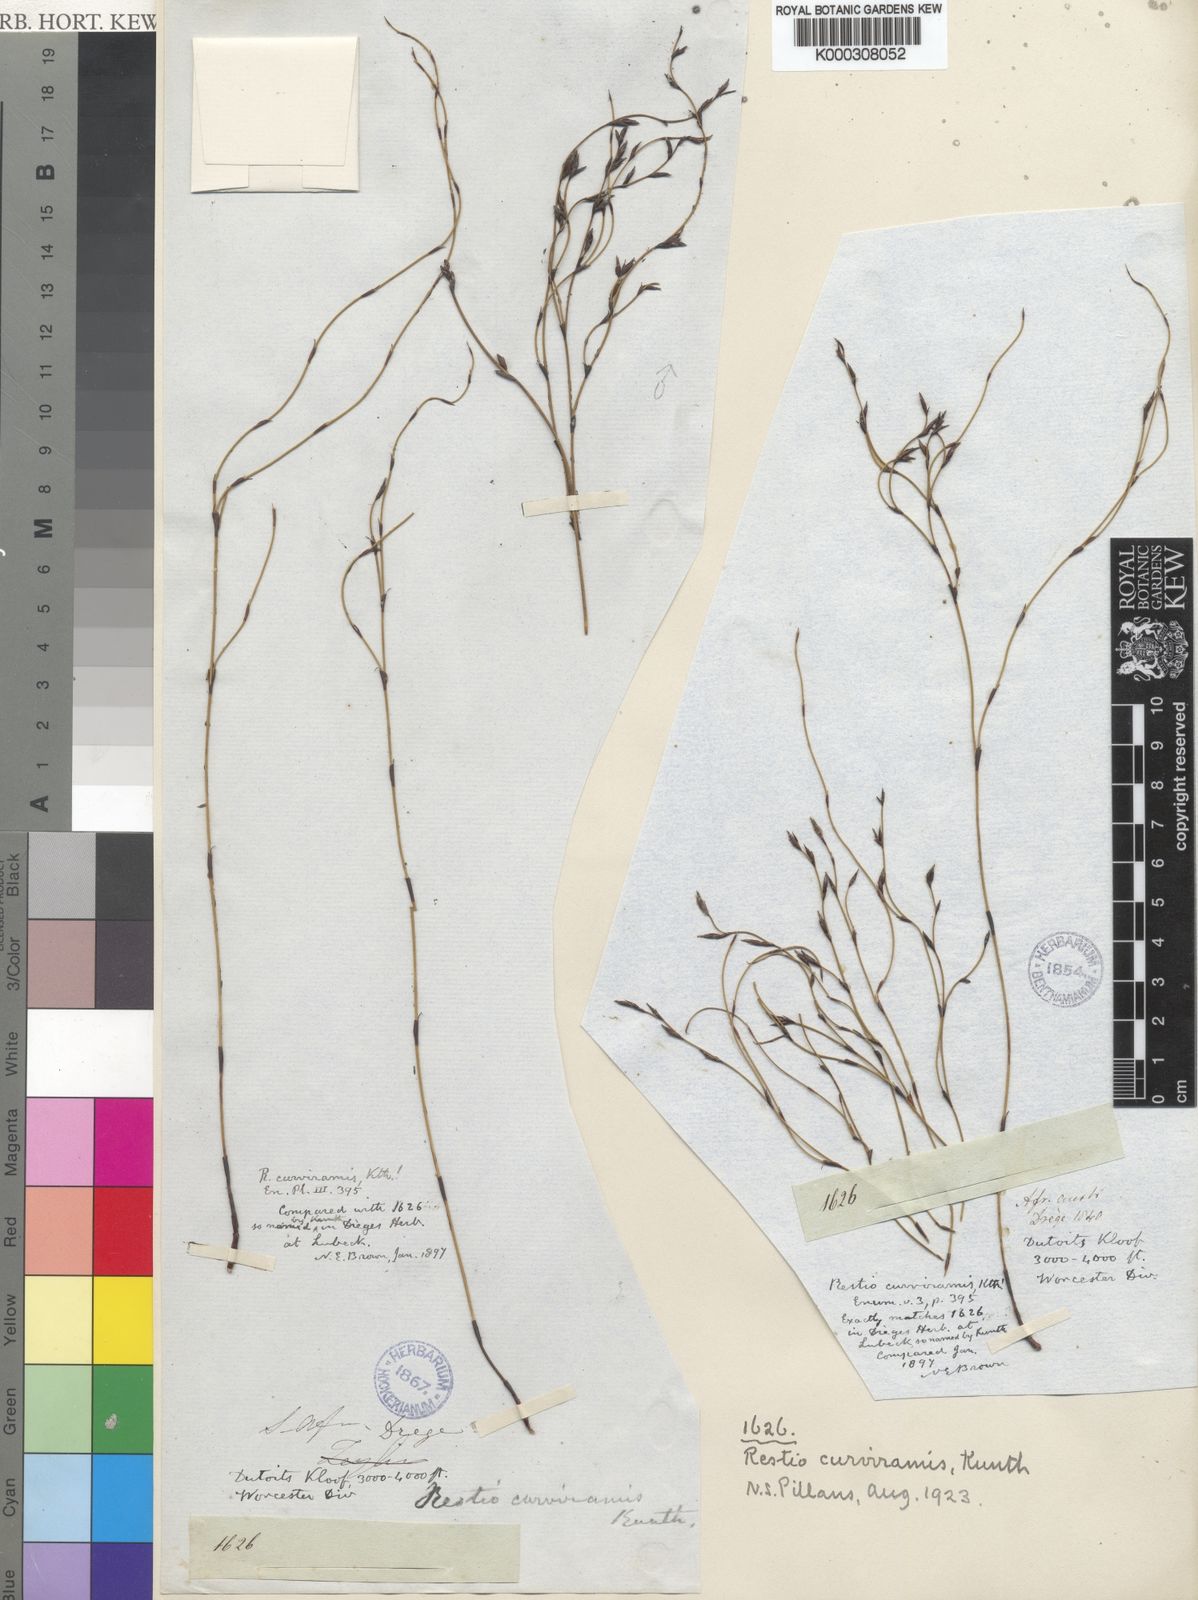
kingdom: Plantae
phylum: Tracheophyta
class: Liliopsida
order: Poales
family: Restionaceae
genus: Restio
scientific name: Restio curviramis
